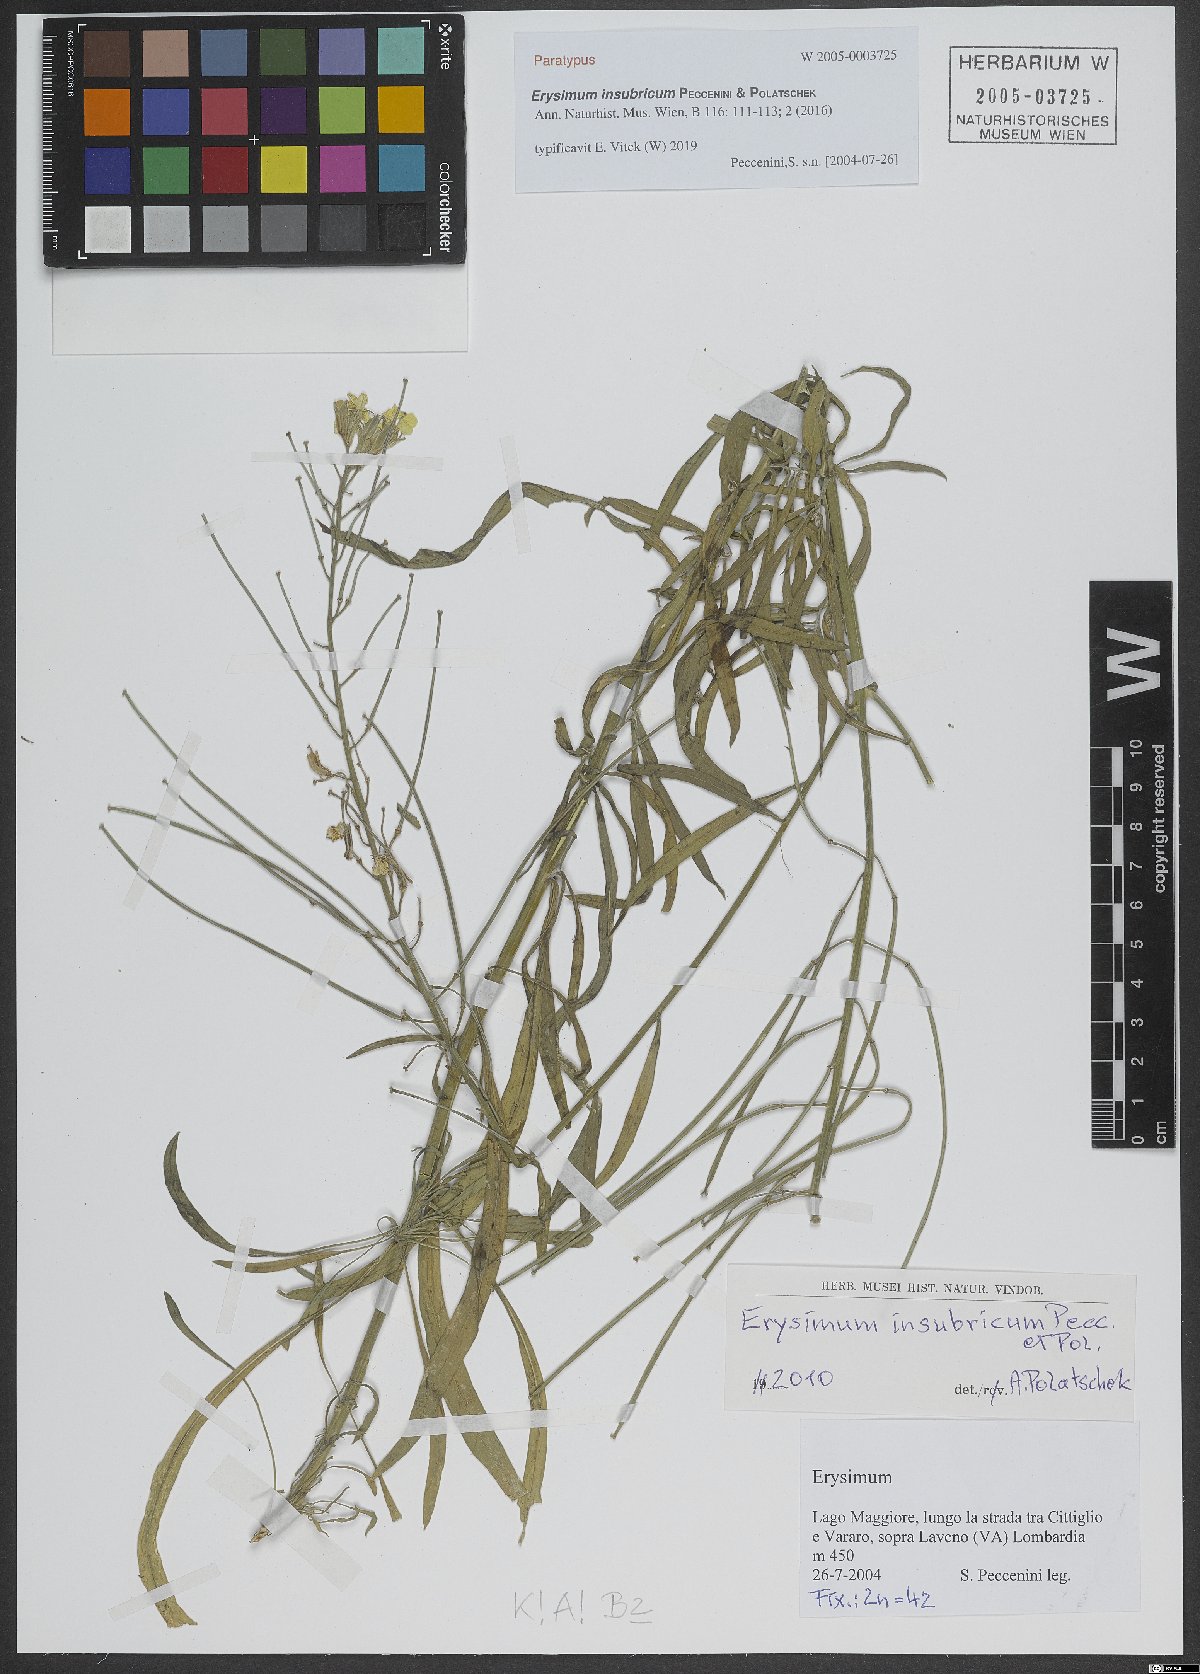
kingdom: Plantae
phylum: Tracheophyta
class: Magnoliopsida
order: Brassicales
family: Brassicaceae
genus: Erysimum
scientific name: Erysimum insubricum
